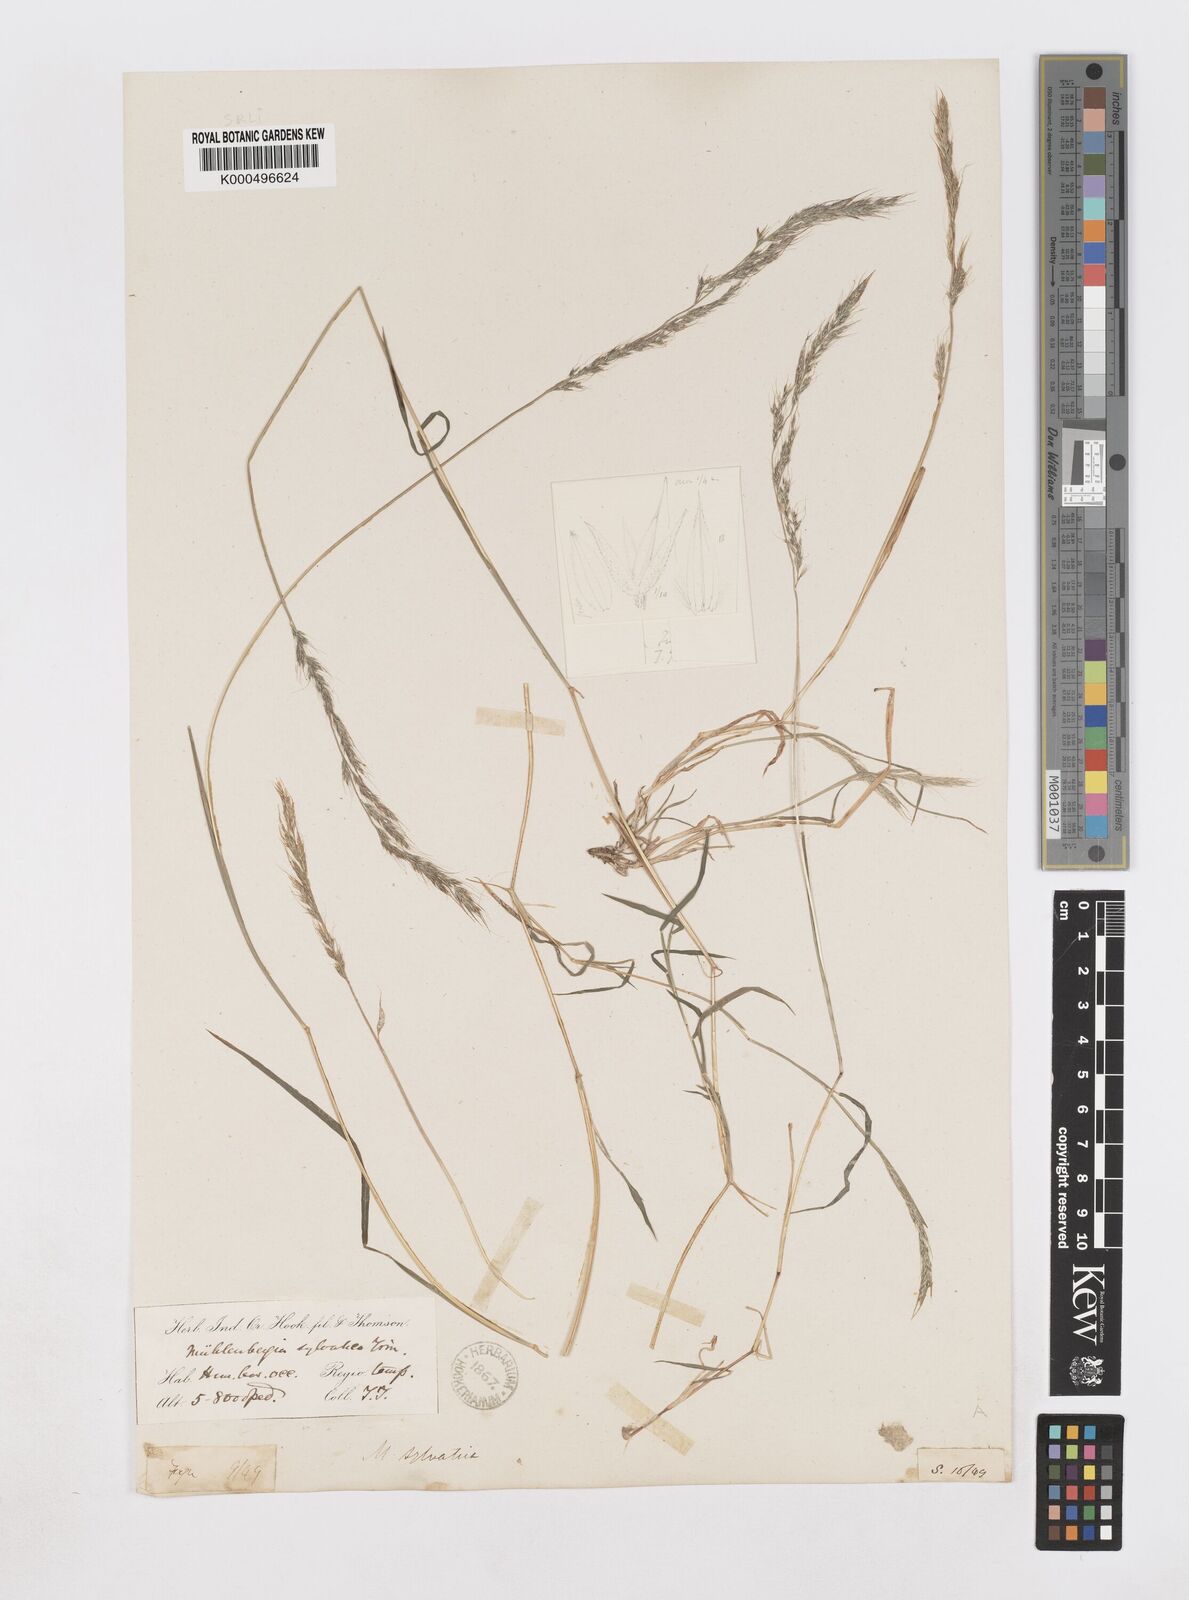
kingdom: Plantae
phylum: Tracheophyta
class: Liliopsida
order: Poales
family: Poaceae
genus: Muhlenbergia
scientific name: Muhlenbergia duthieana
